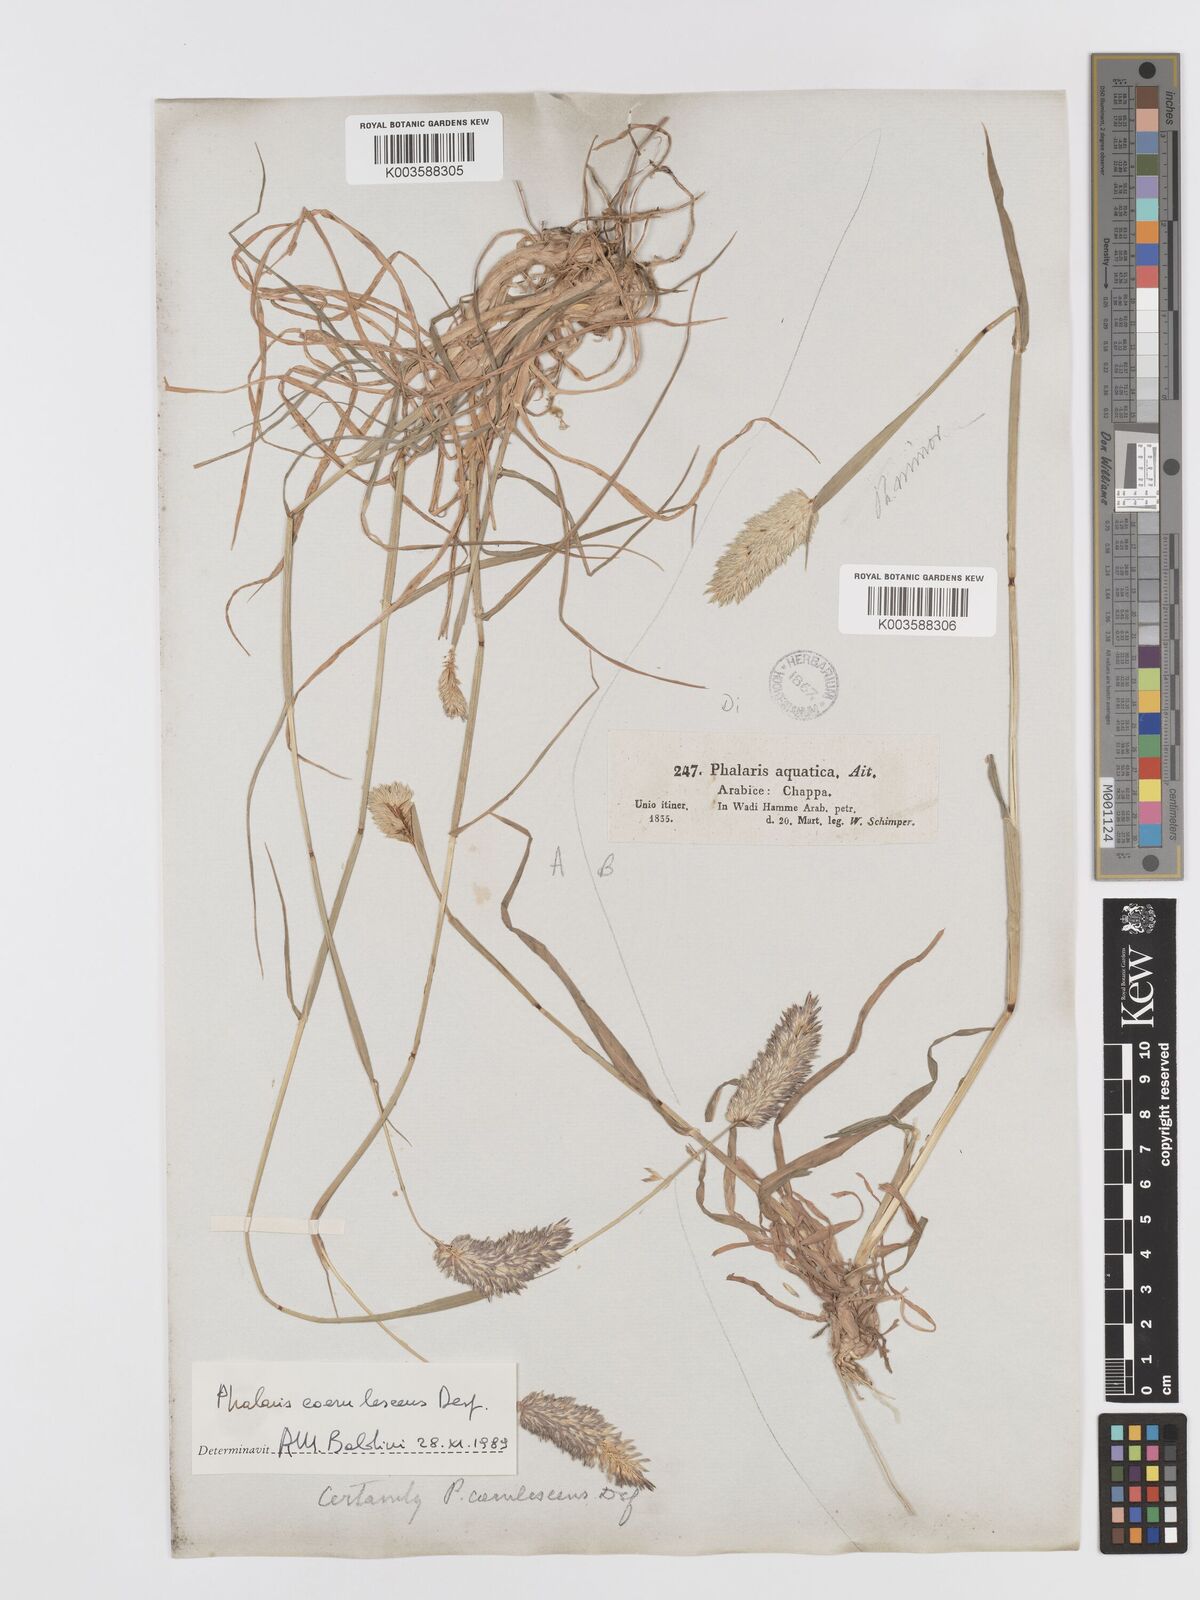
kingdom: Plantae
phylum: Tracheophyta
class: Liliopsida
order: Poales
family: Poaceae
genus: Phalaris
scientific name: Phalaris coerulescens
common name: Sunolgrass
